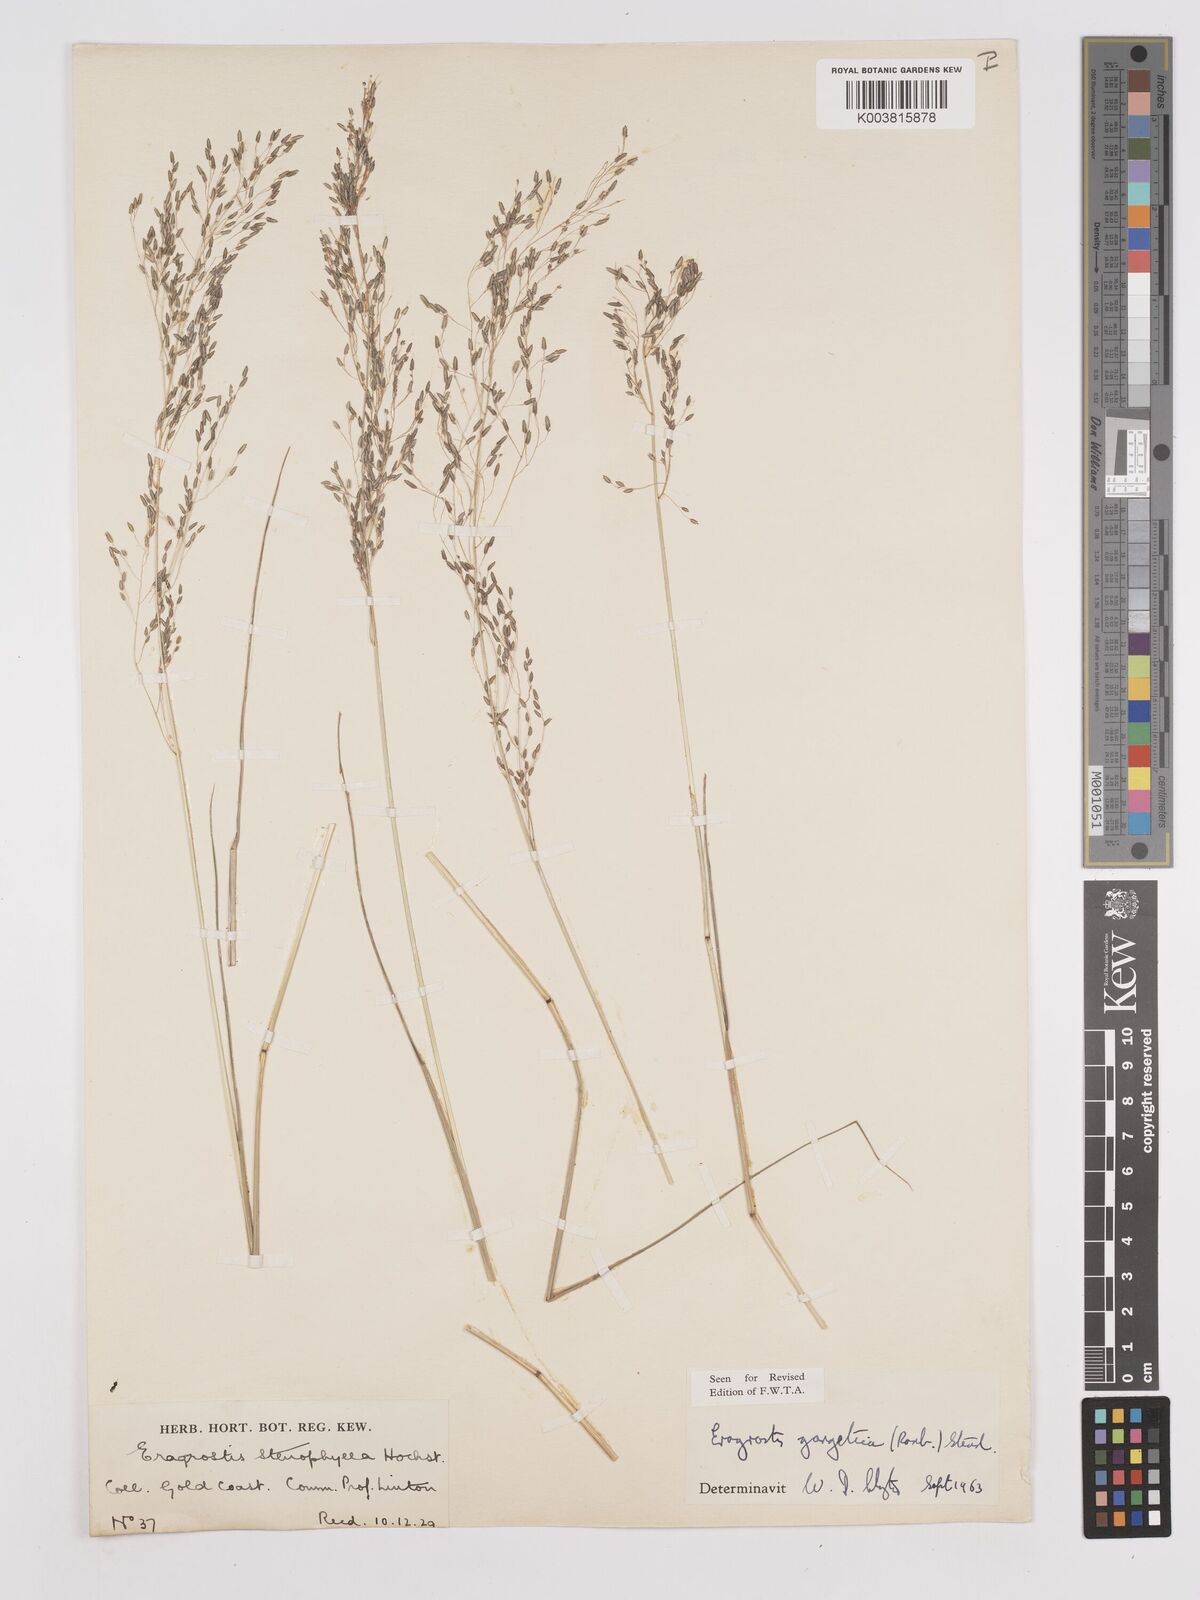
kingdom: Plantae
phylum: Tracheophyta
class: Liliopsida
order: Poales
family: Poaceae
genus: Eragrostis
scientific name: Eragrostis gangetica
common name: Slimflower lovegrass
